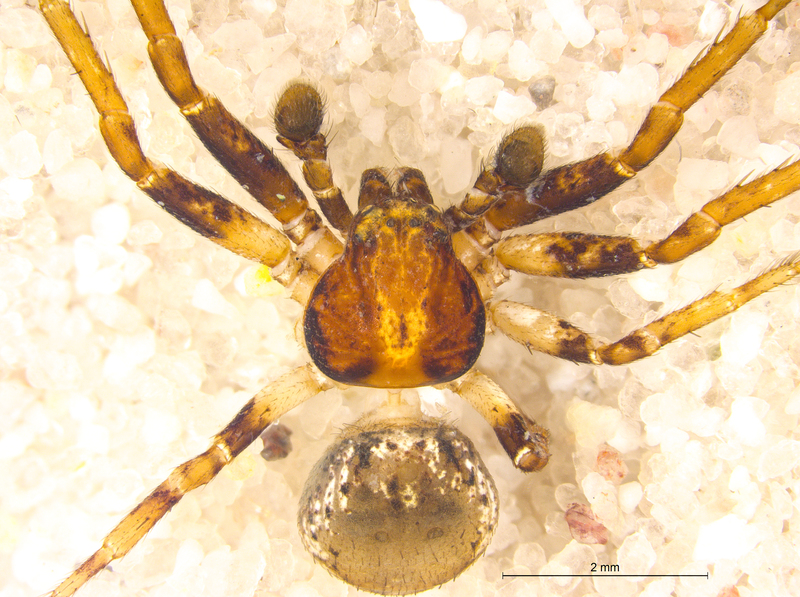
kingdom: Animalia
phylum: Arthropoda
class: Arachnida
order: Araneae
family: Thomisidae
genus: Ozyptila
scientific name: Ozyptila praticola
